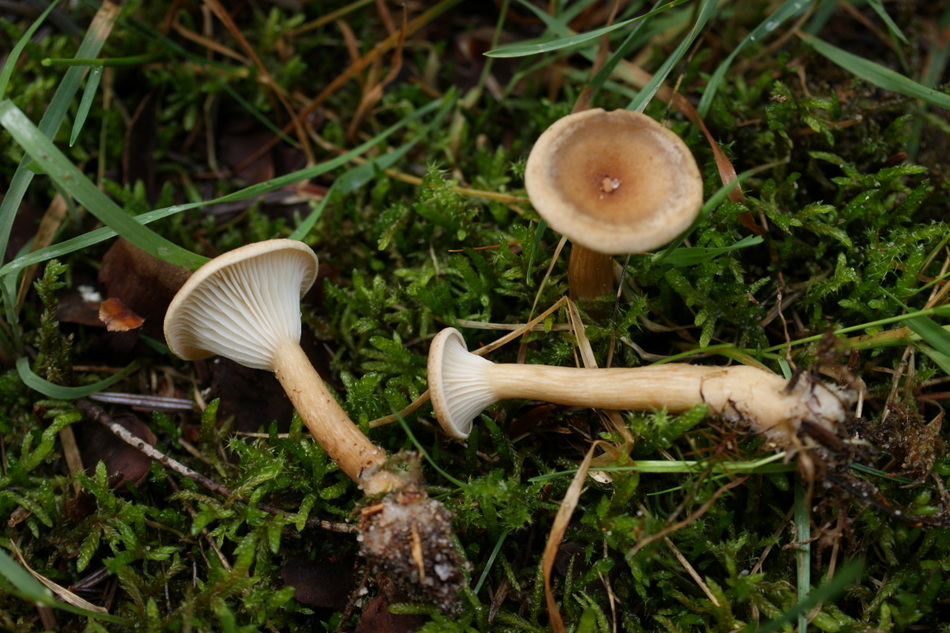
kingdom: Fungi
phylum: Basidiomycota
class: Agaricomycetes
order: Agaricales
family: Tricholomataceae
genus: Clitocybe
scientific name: Clitocybe costata
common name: brunstokket tragthat
